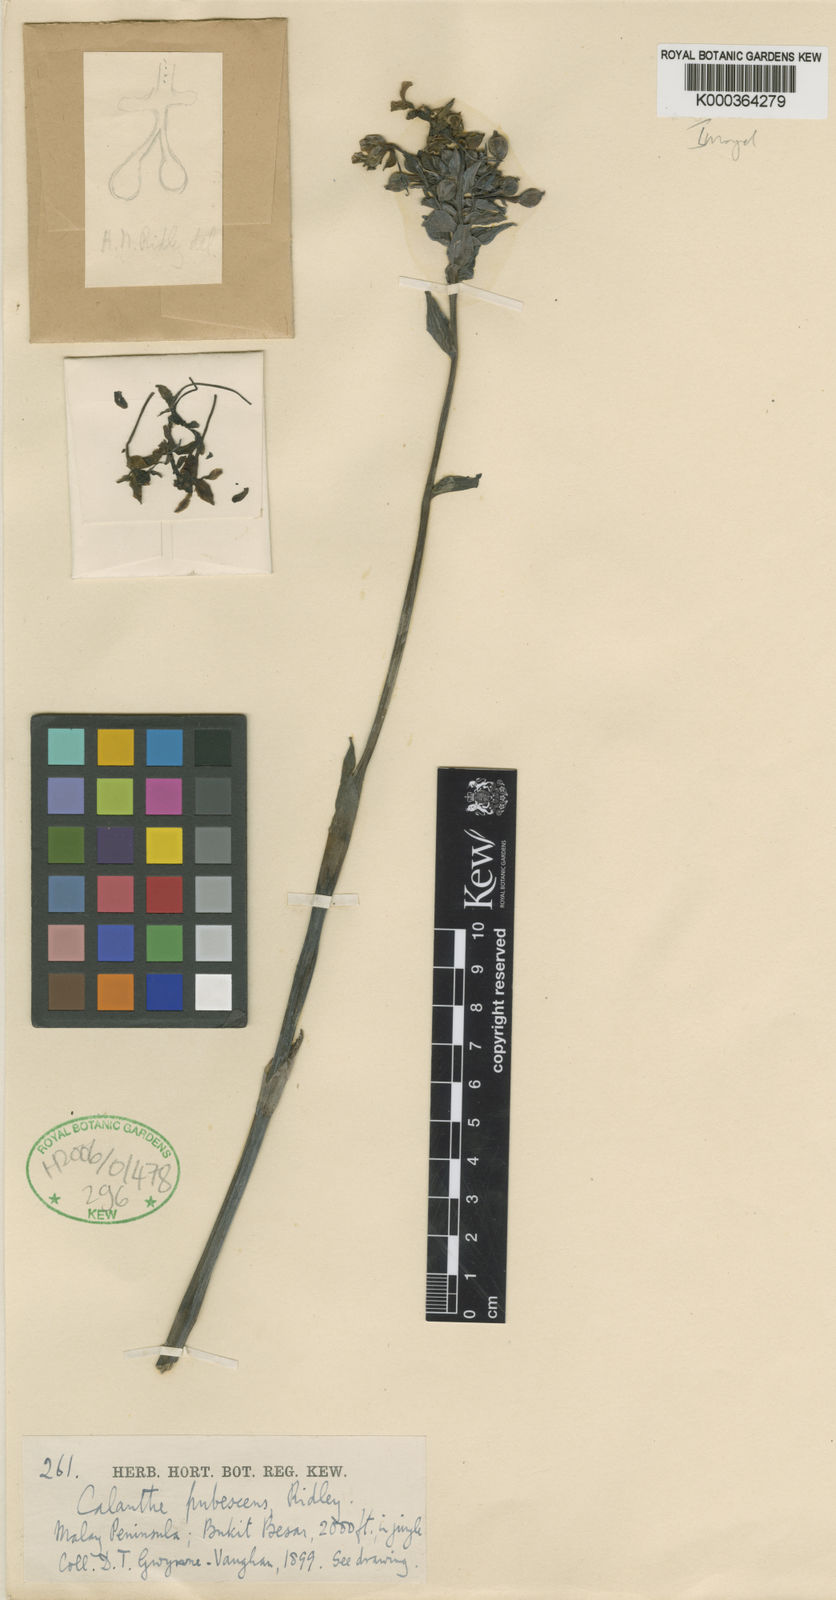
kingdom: Plantae
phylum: Tracheophyta
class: Liliopsida
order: Asparagales
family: Orchidaceae
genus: Calanthe
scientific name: Calanthe triplicata
